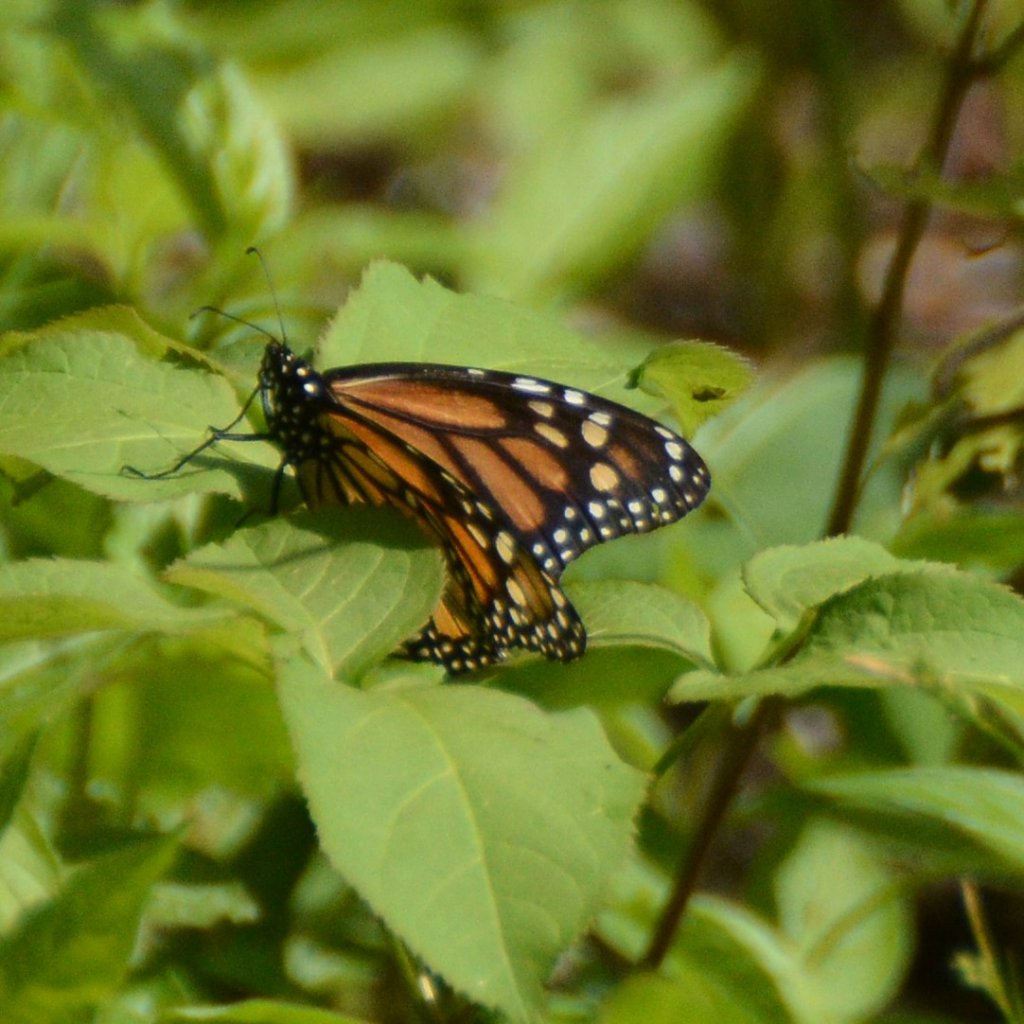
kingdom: Animalia
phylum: Arthropoda
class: Insecta
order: Lepidoptera
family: Nymphalidae
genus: Danaus
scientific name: Danaus plexippus
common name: Monarch
